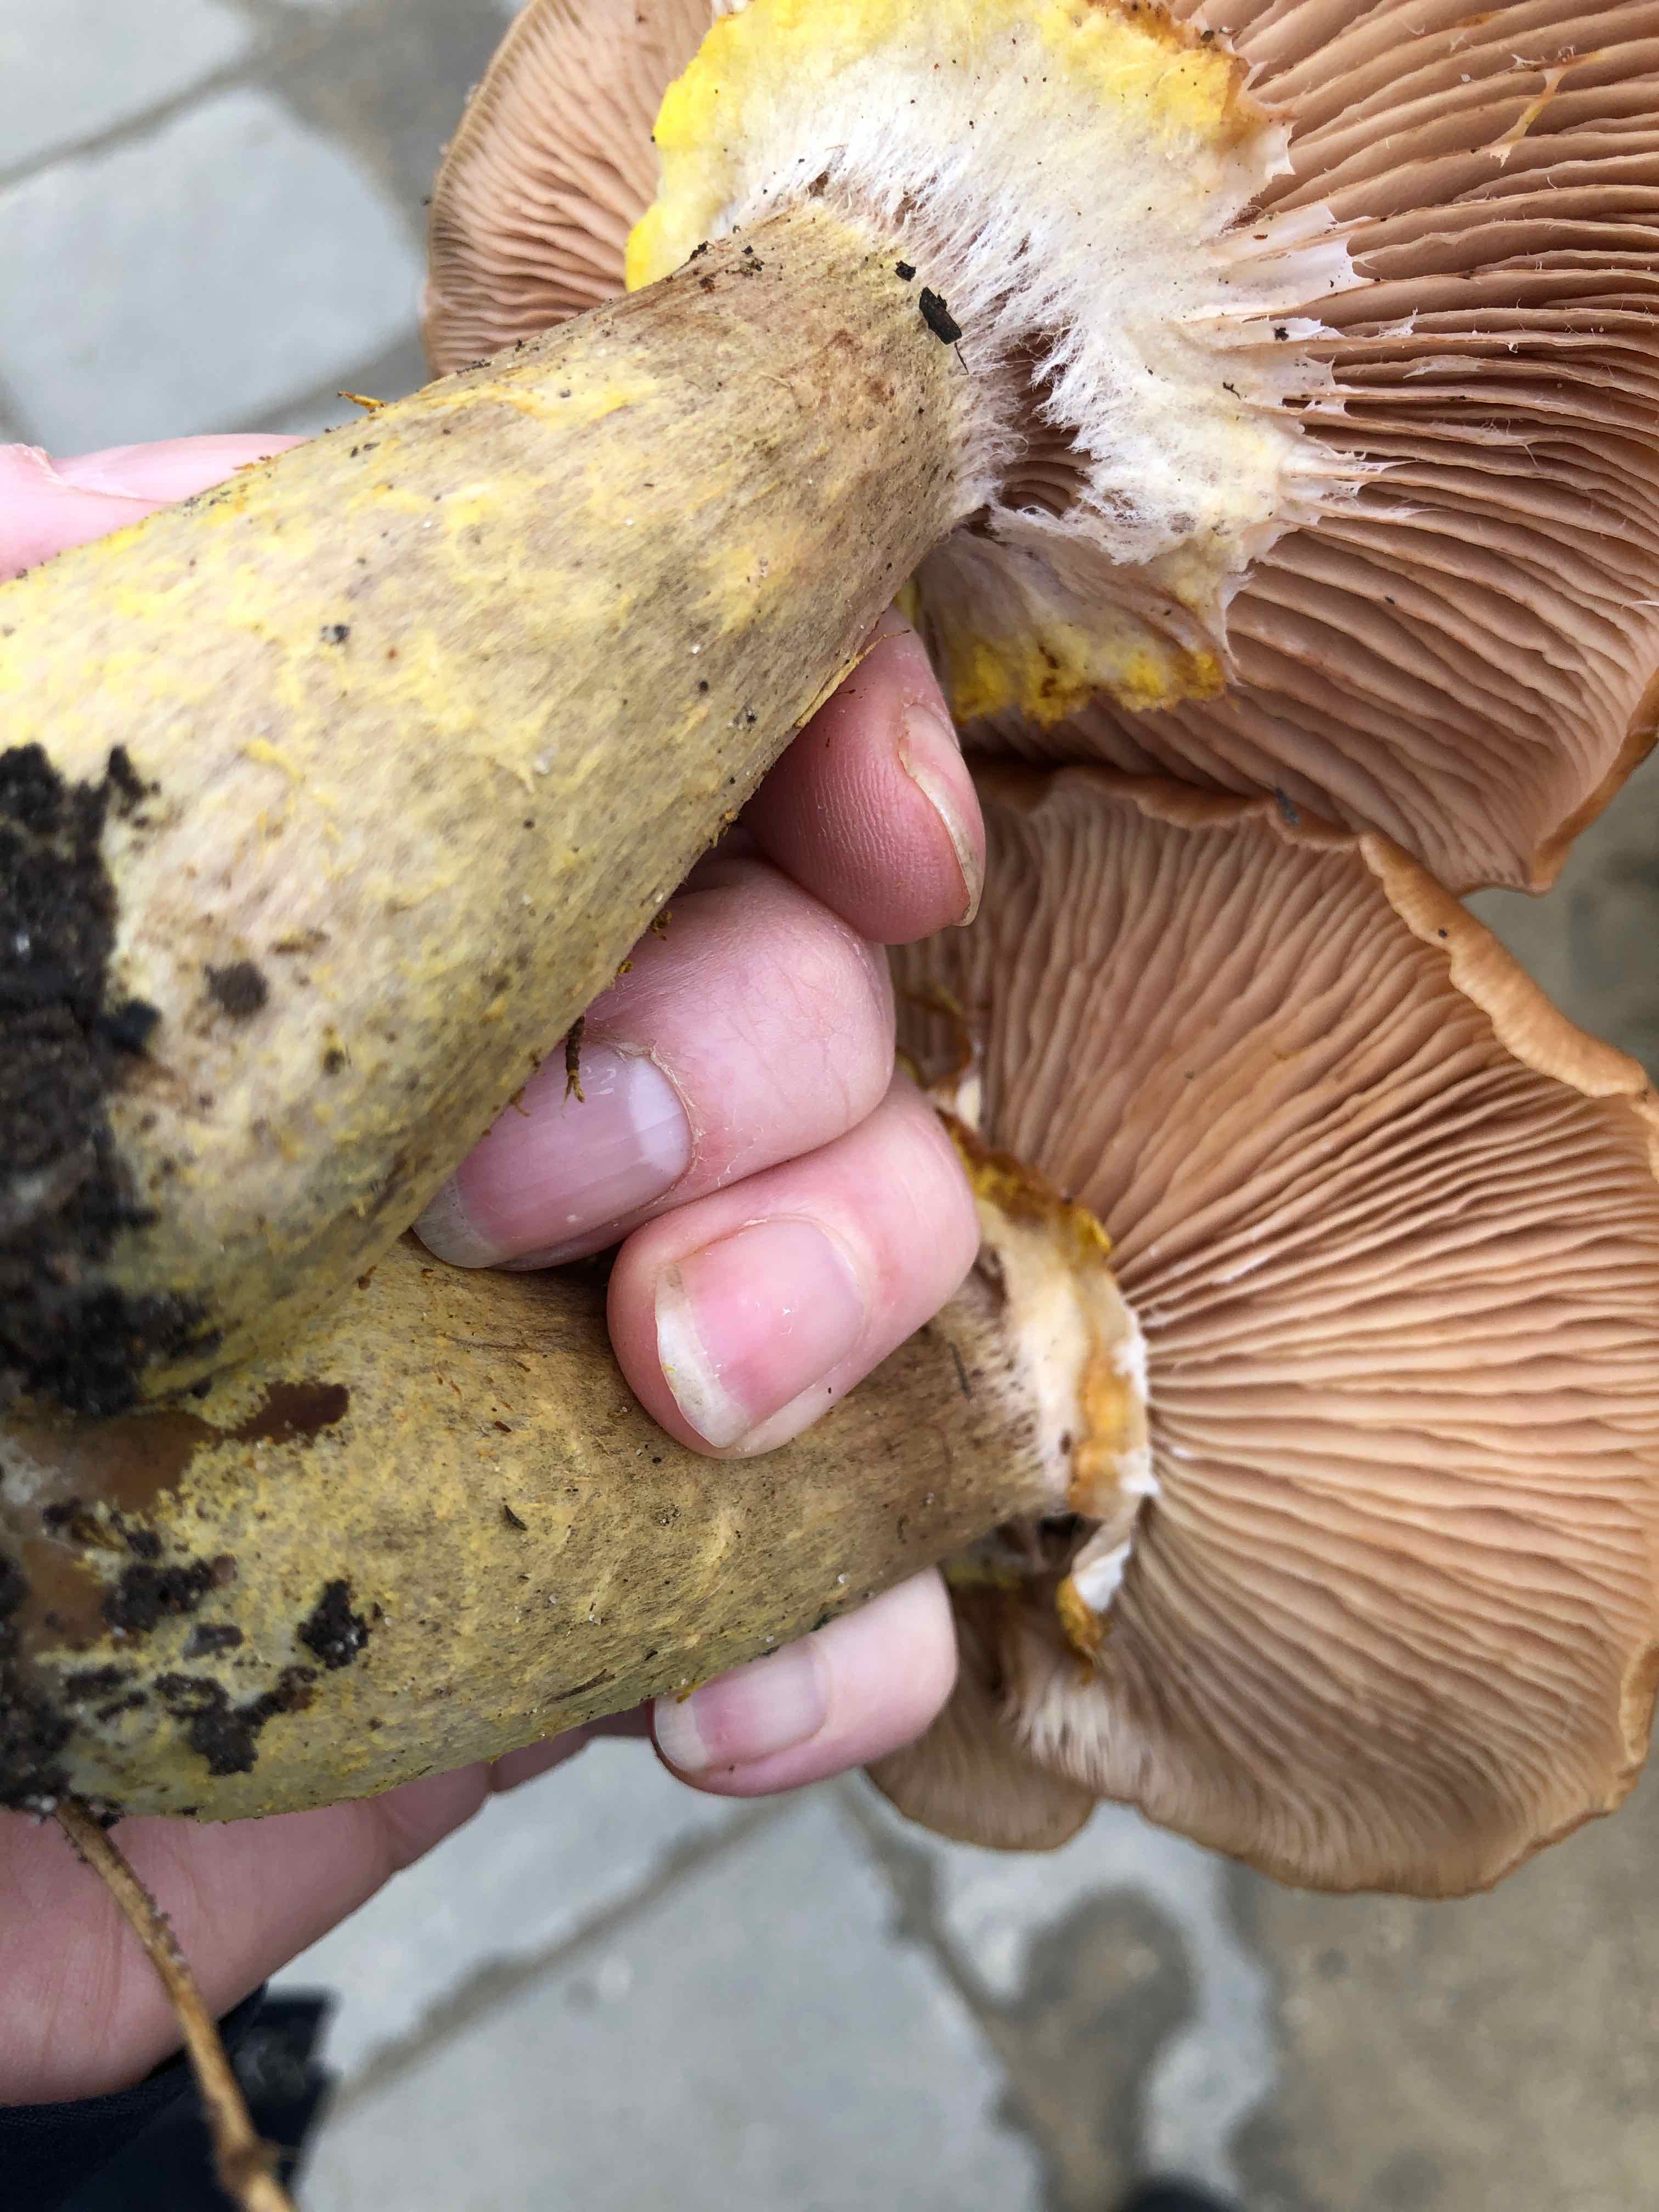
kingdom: Fungi
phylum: Basidiomycota
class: Agaricomycetes
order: Agaricales
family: Physalacriaceae
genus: Armillaria
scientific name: Armillaria lutea
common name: køllestokket honningsvamp
